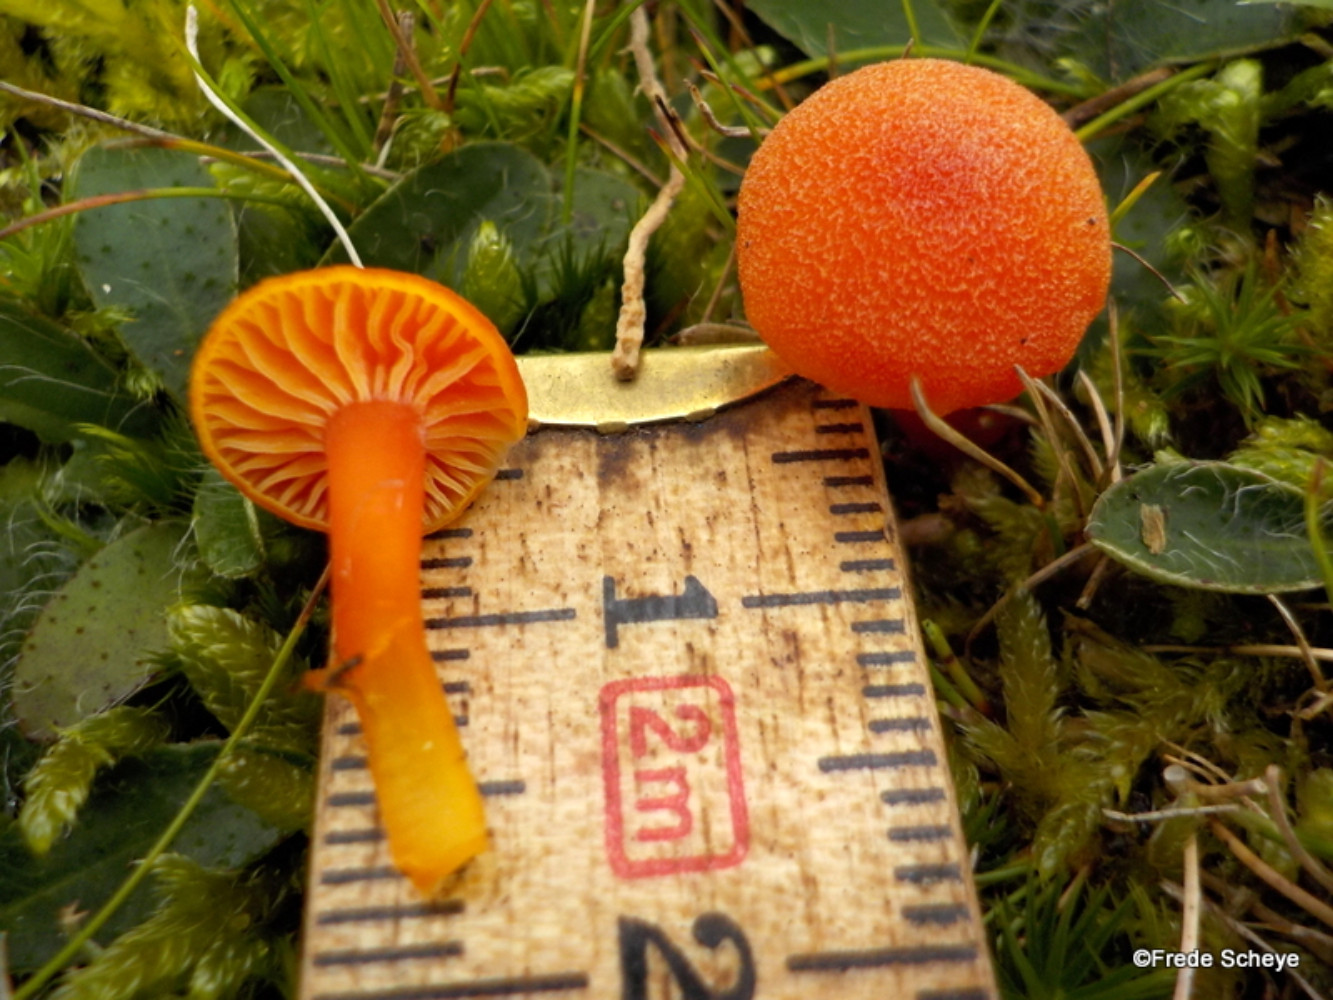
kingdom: Fungi
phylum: Basidiomycota
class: Agaricomycetes
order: Agaricales
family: Hygrophoraceae
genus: Hygrocybe
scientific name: Hygrocybe miniata
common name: mønje-vokshat
